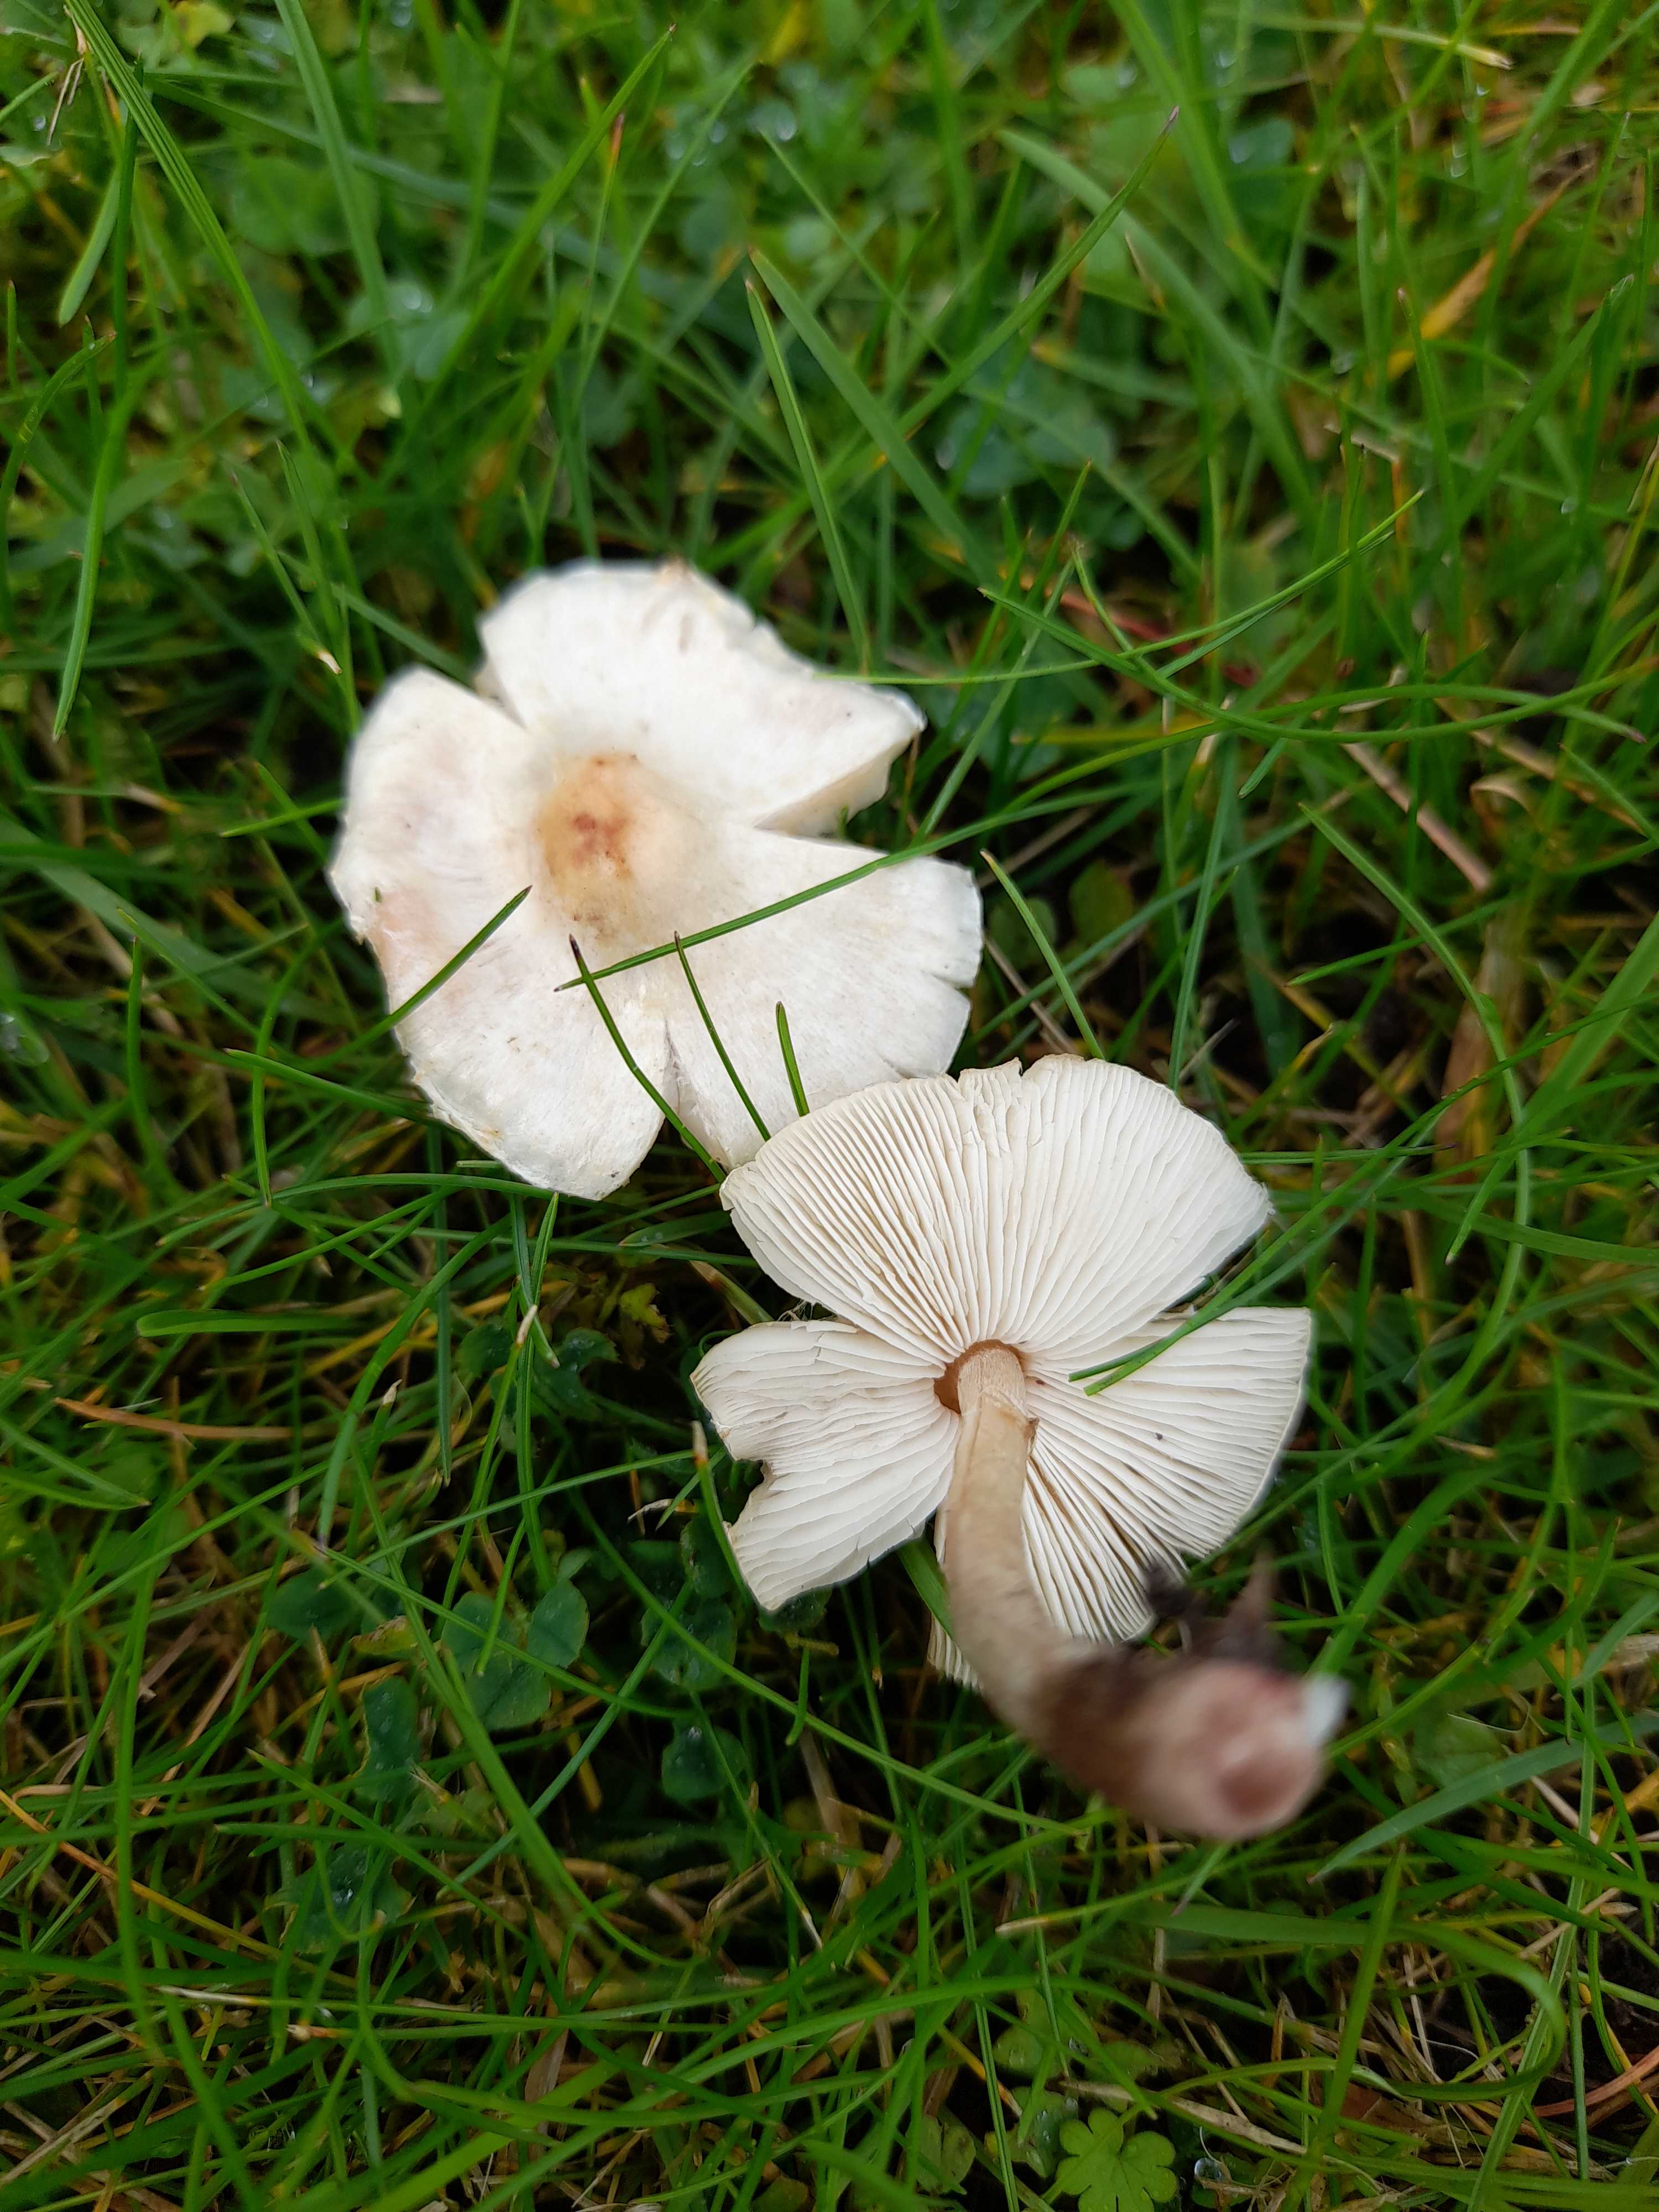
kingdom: Fungi
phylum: Basidiomycota
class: Agaricomycetes
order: Agaricales
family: Agaricaceae
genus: Lepiota
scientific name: Lepiota cristata
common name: stinkende parasolhat
